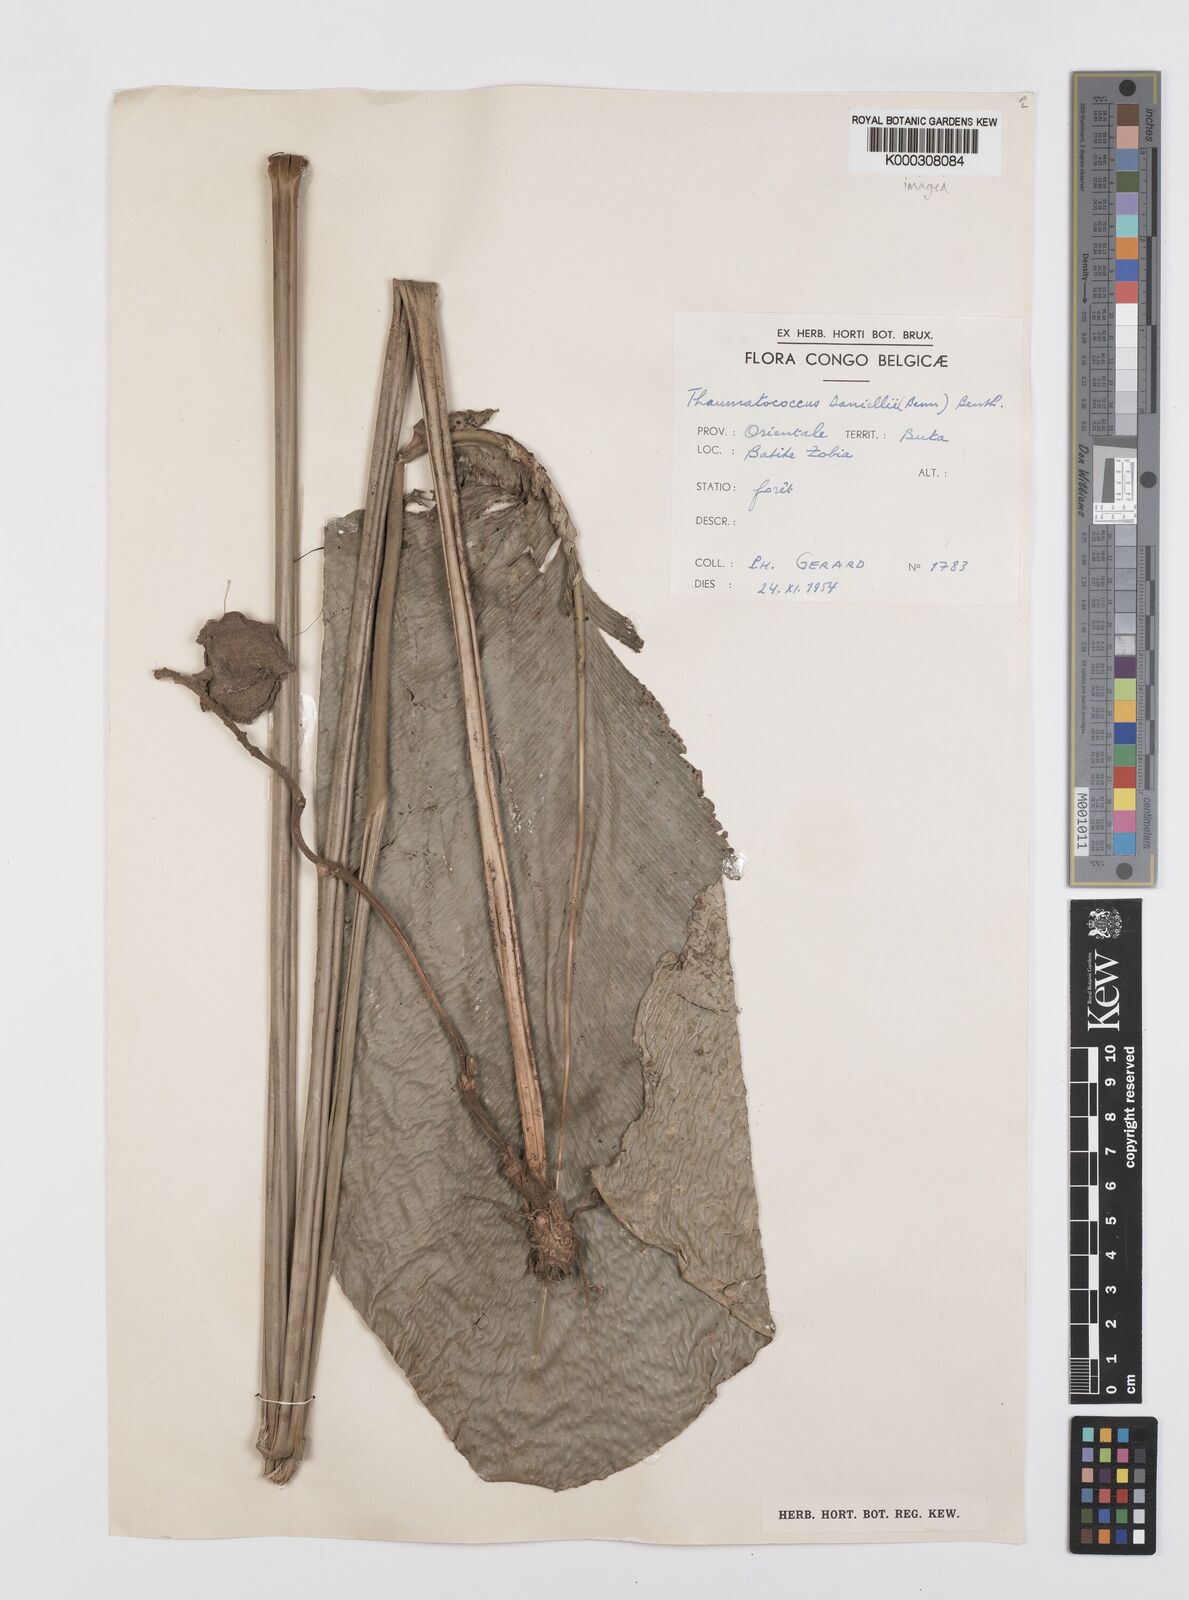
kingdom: Plantae
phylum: Tracheophyta
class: Liliopsida
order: Zingiberales
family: Marantaceae
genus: Thaumatococcus
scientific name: Thaumatococcus
